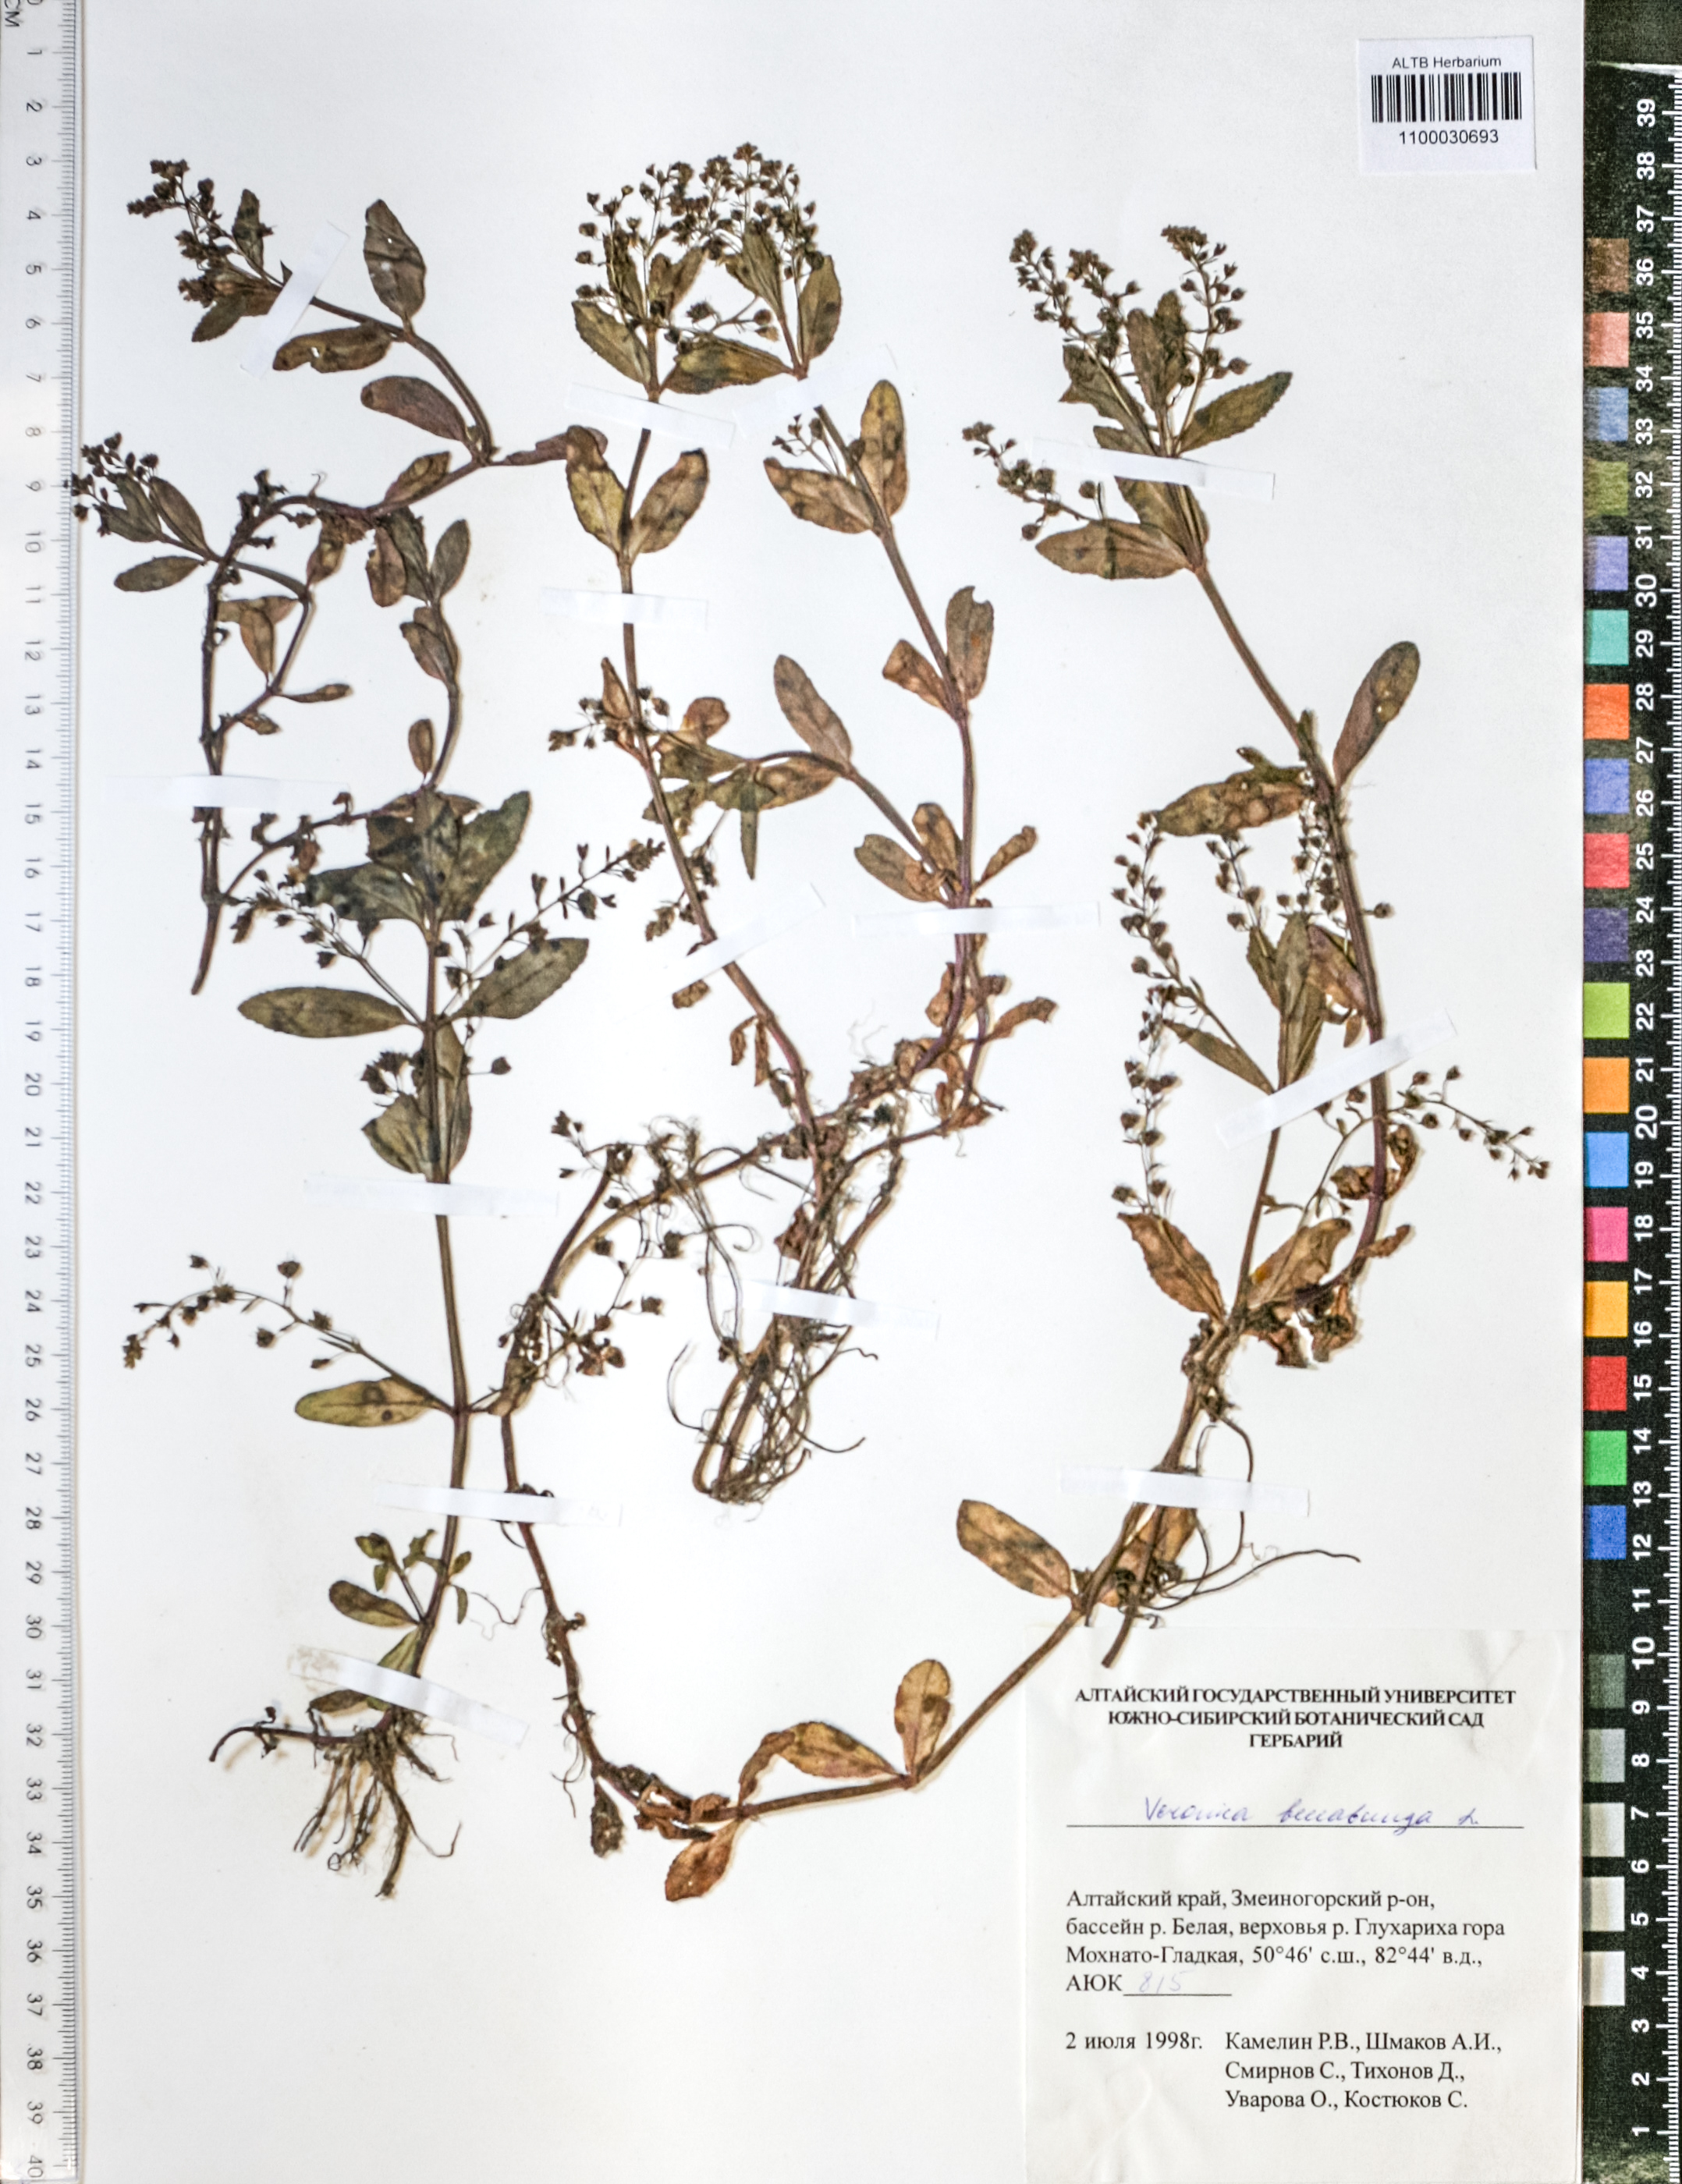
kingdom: Plantae
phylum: Tracheophyta
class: Magnoliopsida
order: Lamiales
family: Plantaginaceae
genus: Veronica
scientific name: Veronica beccabunga
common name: Brooklime
